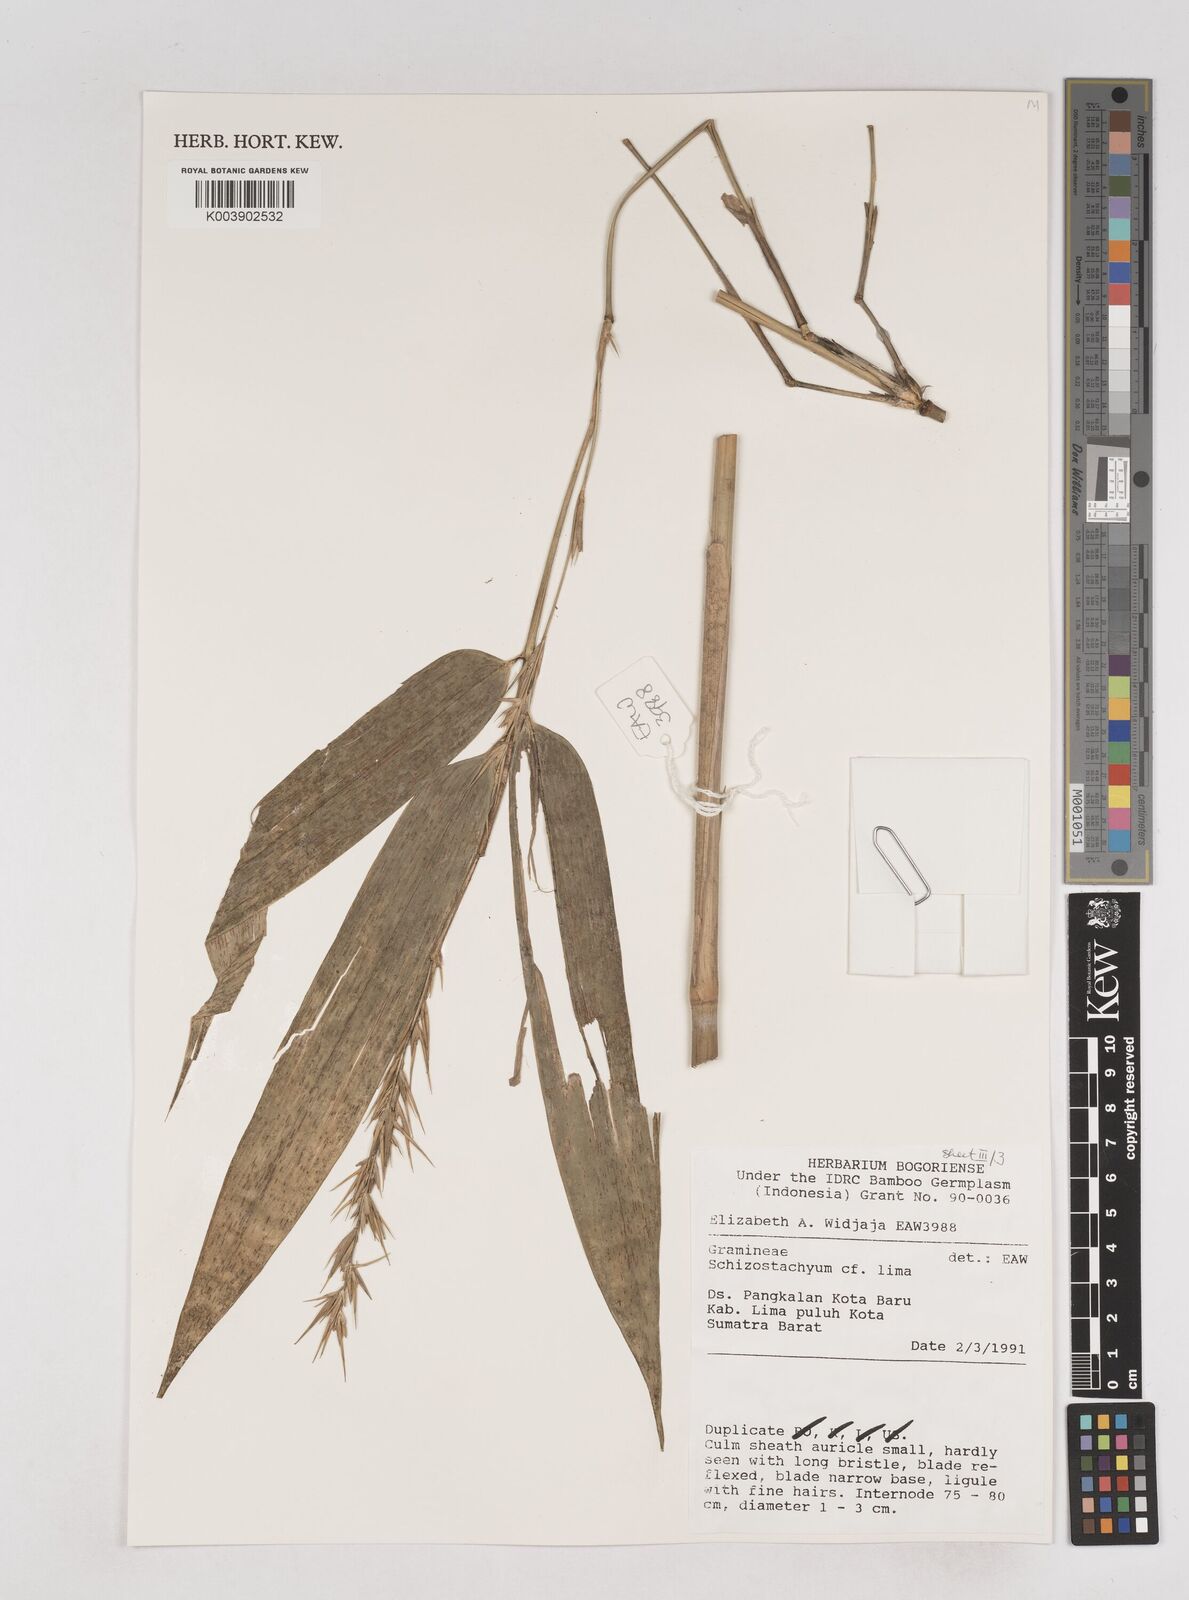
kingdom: Plantae
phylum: Tracheophyta
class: Liliopsida
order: Poales
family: Poaceae
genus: Schizostachyum
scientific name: Schizostachyum lima
